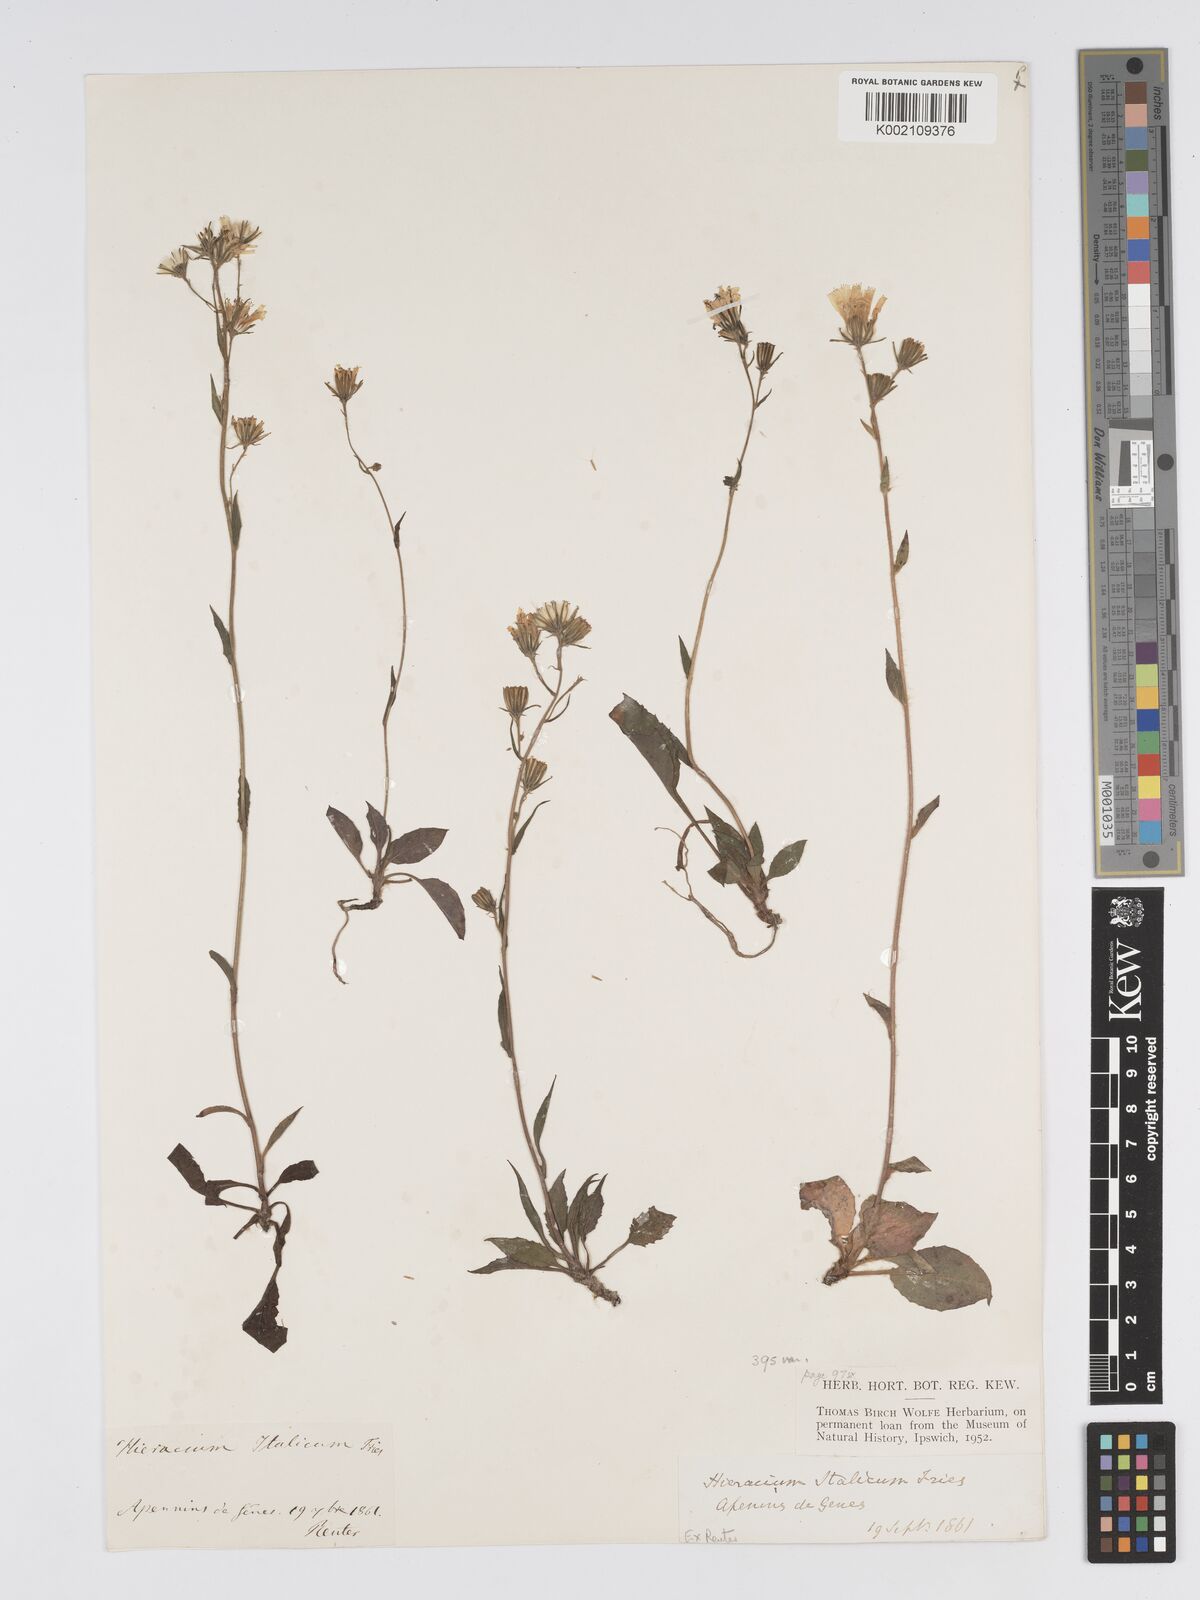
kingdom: Plantae
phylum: Tracheophyta
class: Magnoliopsida
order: Asterales
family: Asteraceae
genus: Hieracium
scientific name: Hieracium racemosum
